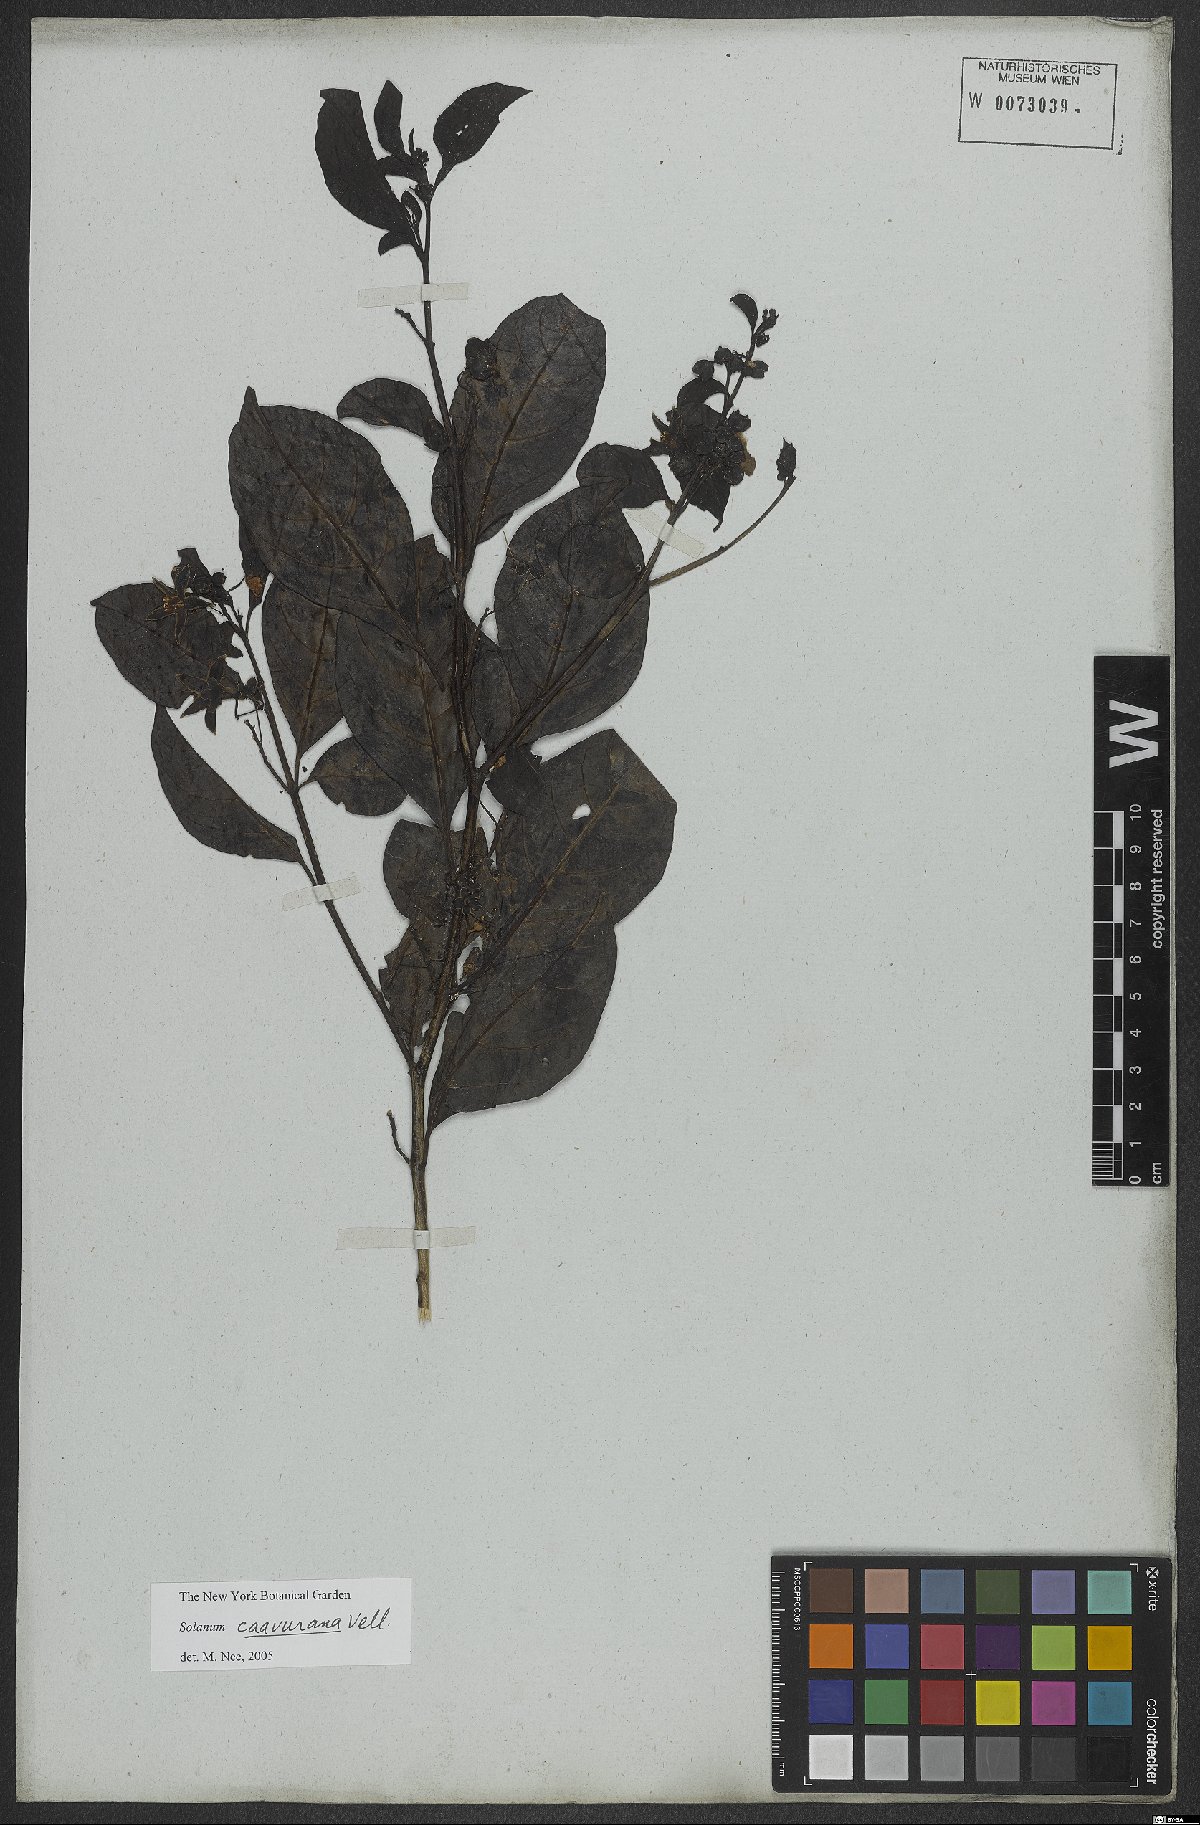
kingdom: Plantae
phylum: Tracheophyta
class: Magnoliopsida
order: Solanales
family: Solanaceae
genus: Solanum
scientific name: Solanum caavurana
